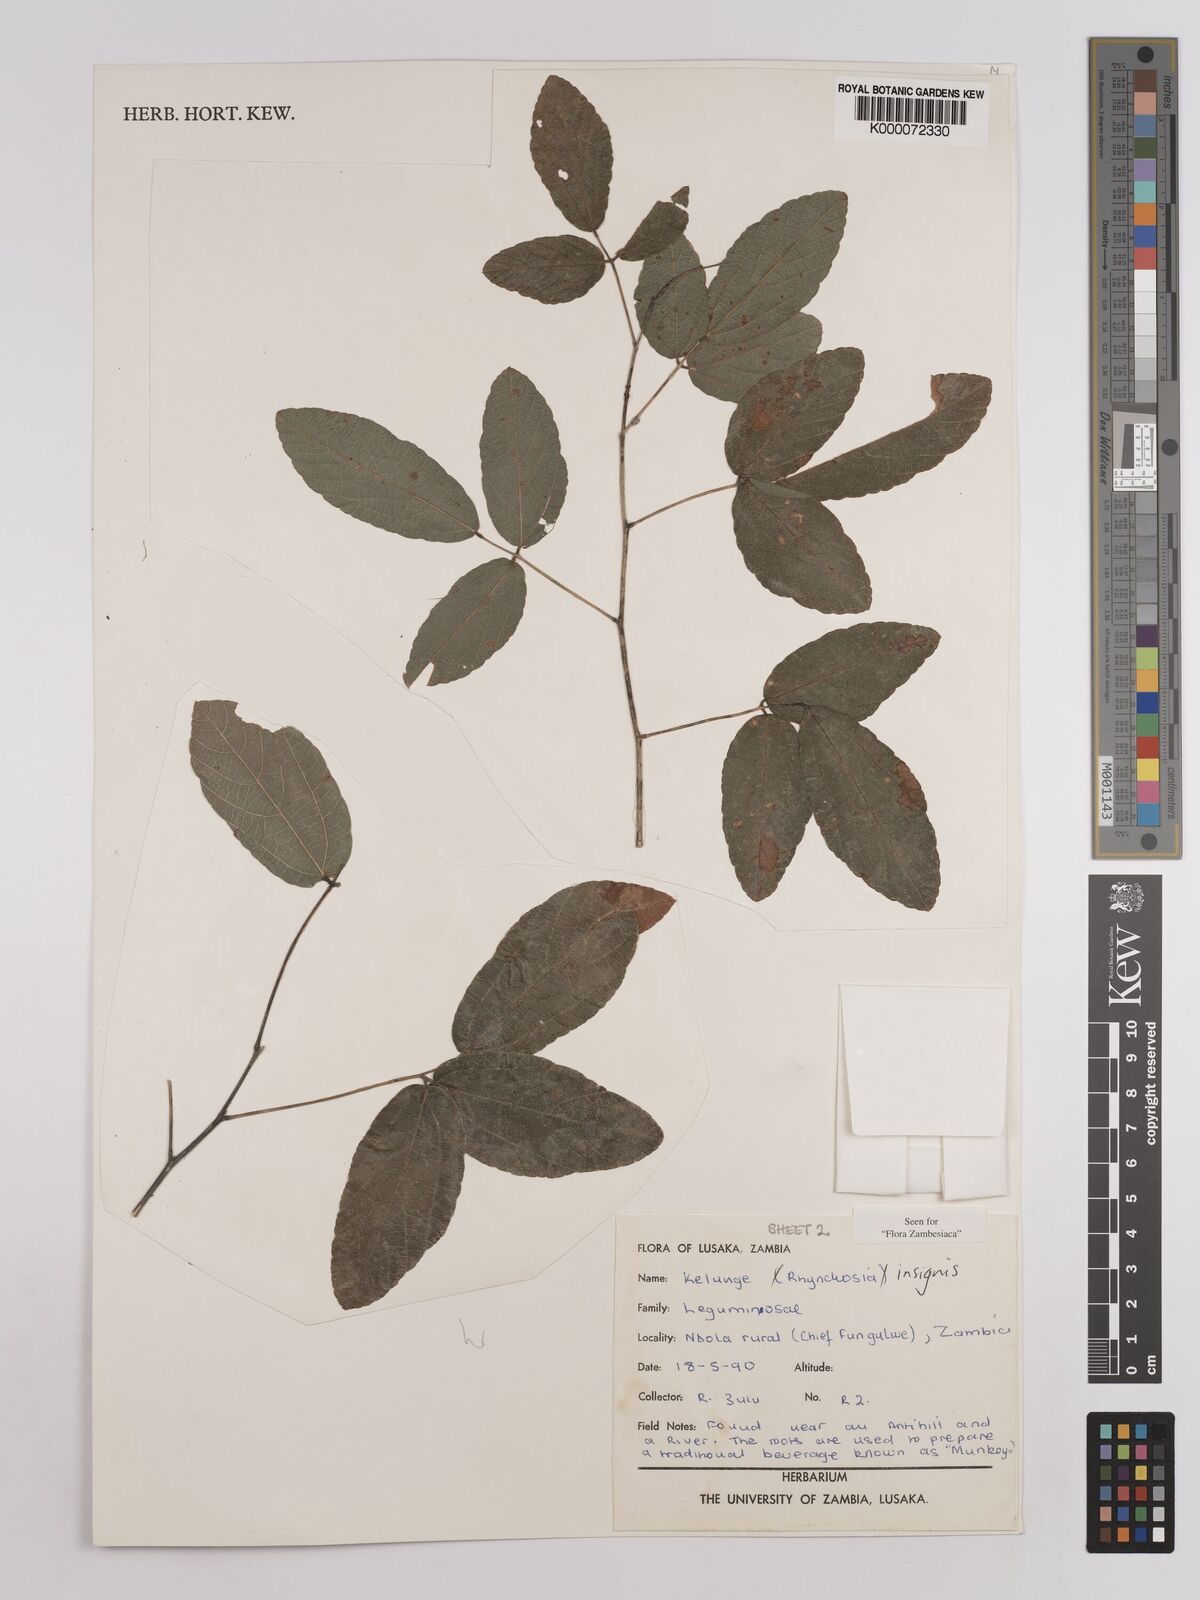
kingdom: Plantae
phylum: Tracheophyta
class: Magnoliopsida
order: Fabales
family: Fabaceae
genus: Rhynchosia
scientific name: Rhynchosia insignis
